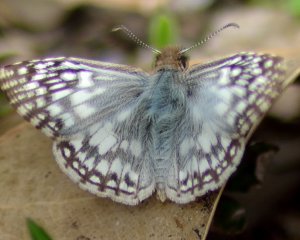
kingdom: Animalia
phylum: Arthropoda
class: Insecta
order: Lepidoptera
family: Hesperiidae
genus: Pyrgus
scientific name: Pyrgus oileus
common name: Tropical Checkered-Skipper
